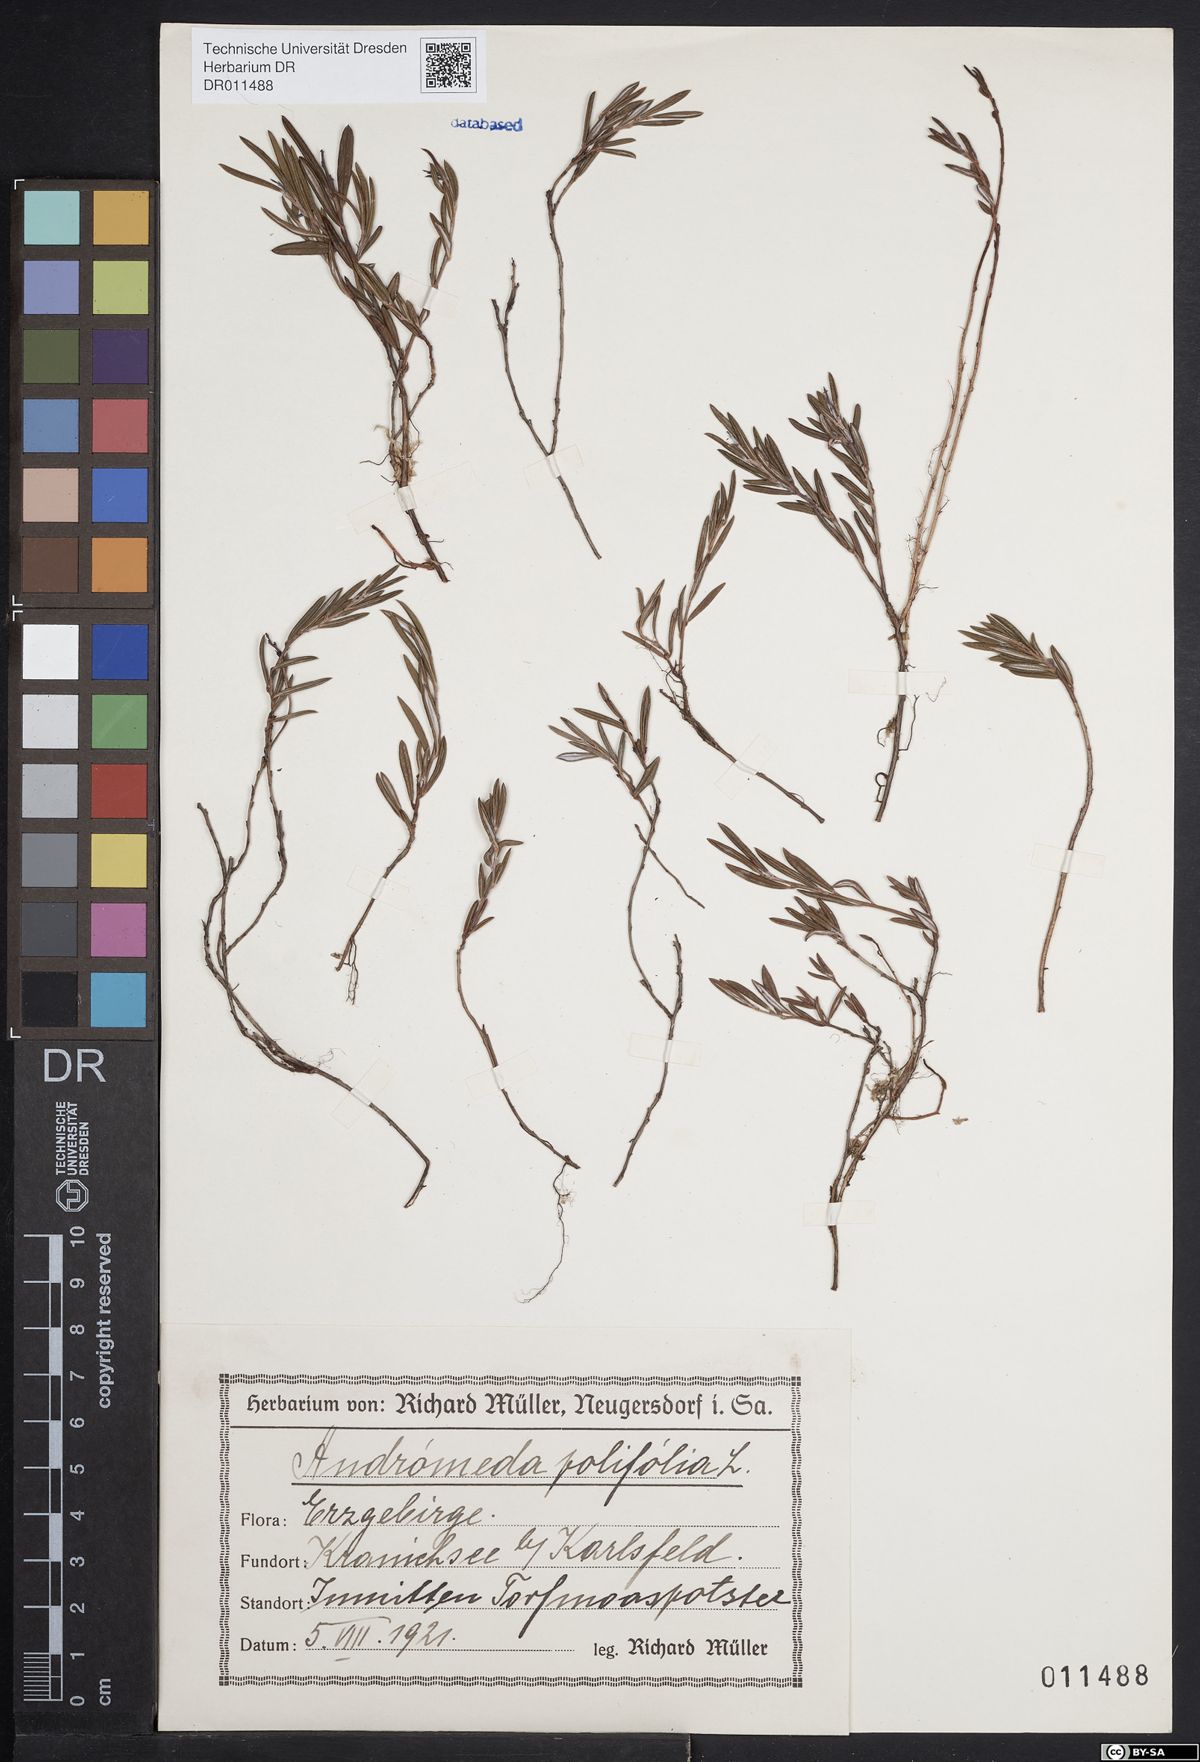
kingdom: Plantae
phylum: Tracheophyta
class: Magnoliopsida
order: Ericales
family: Ericaceae
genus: Andromeda
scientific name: Andromeda polifolia
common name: Bog-rosemary
